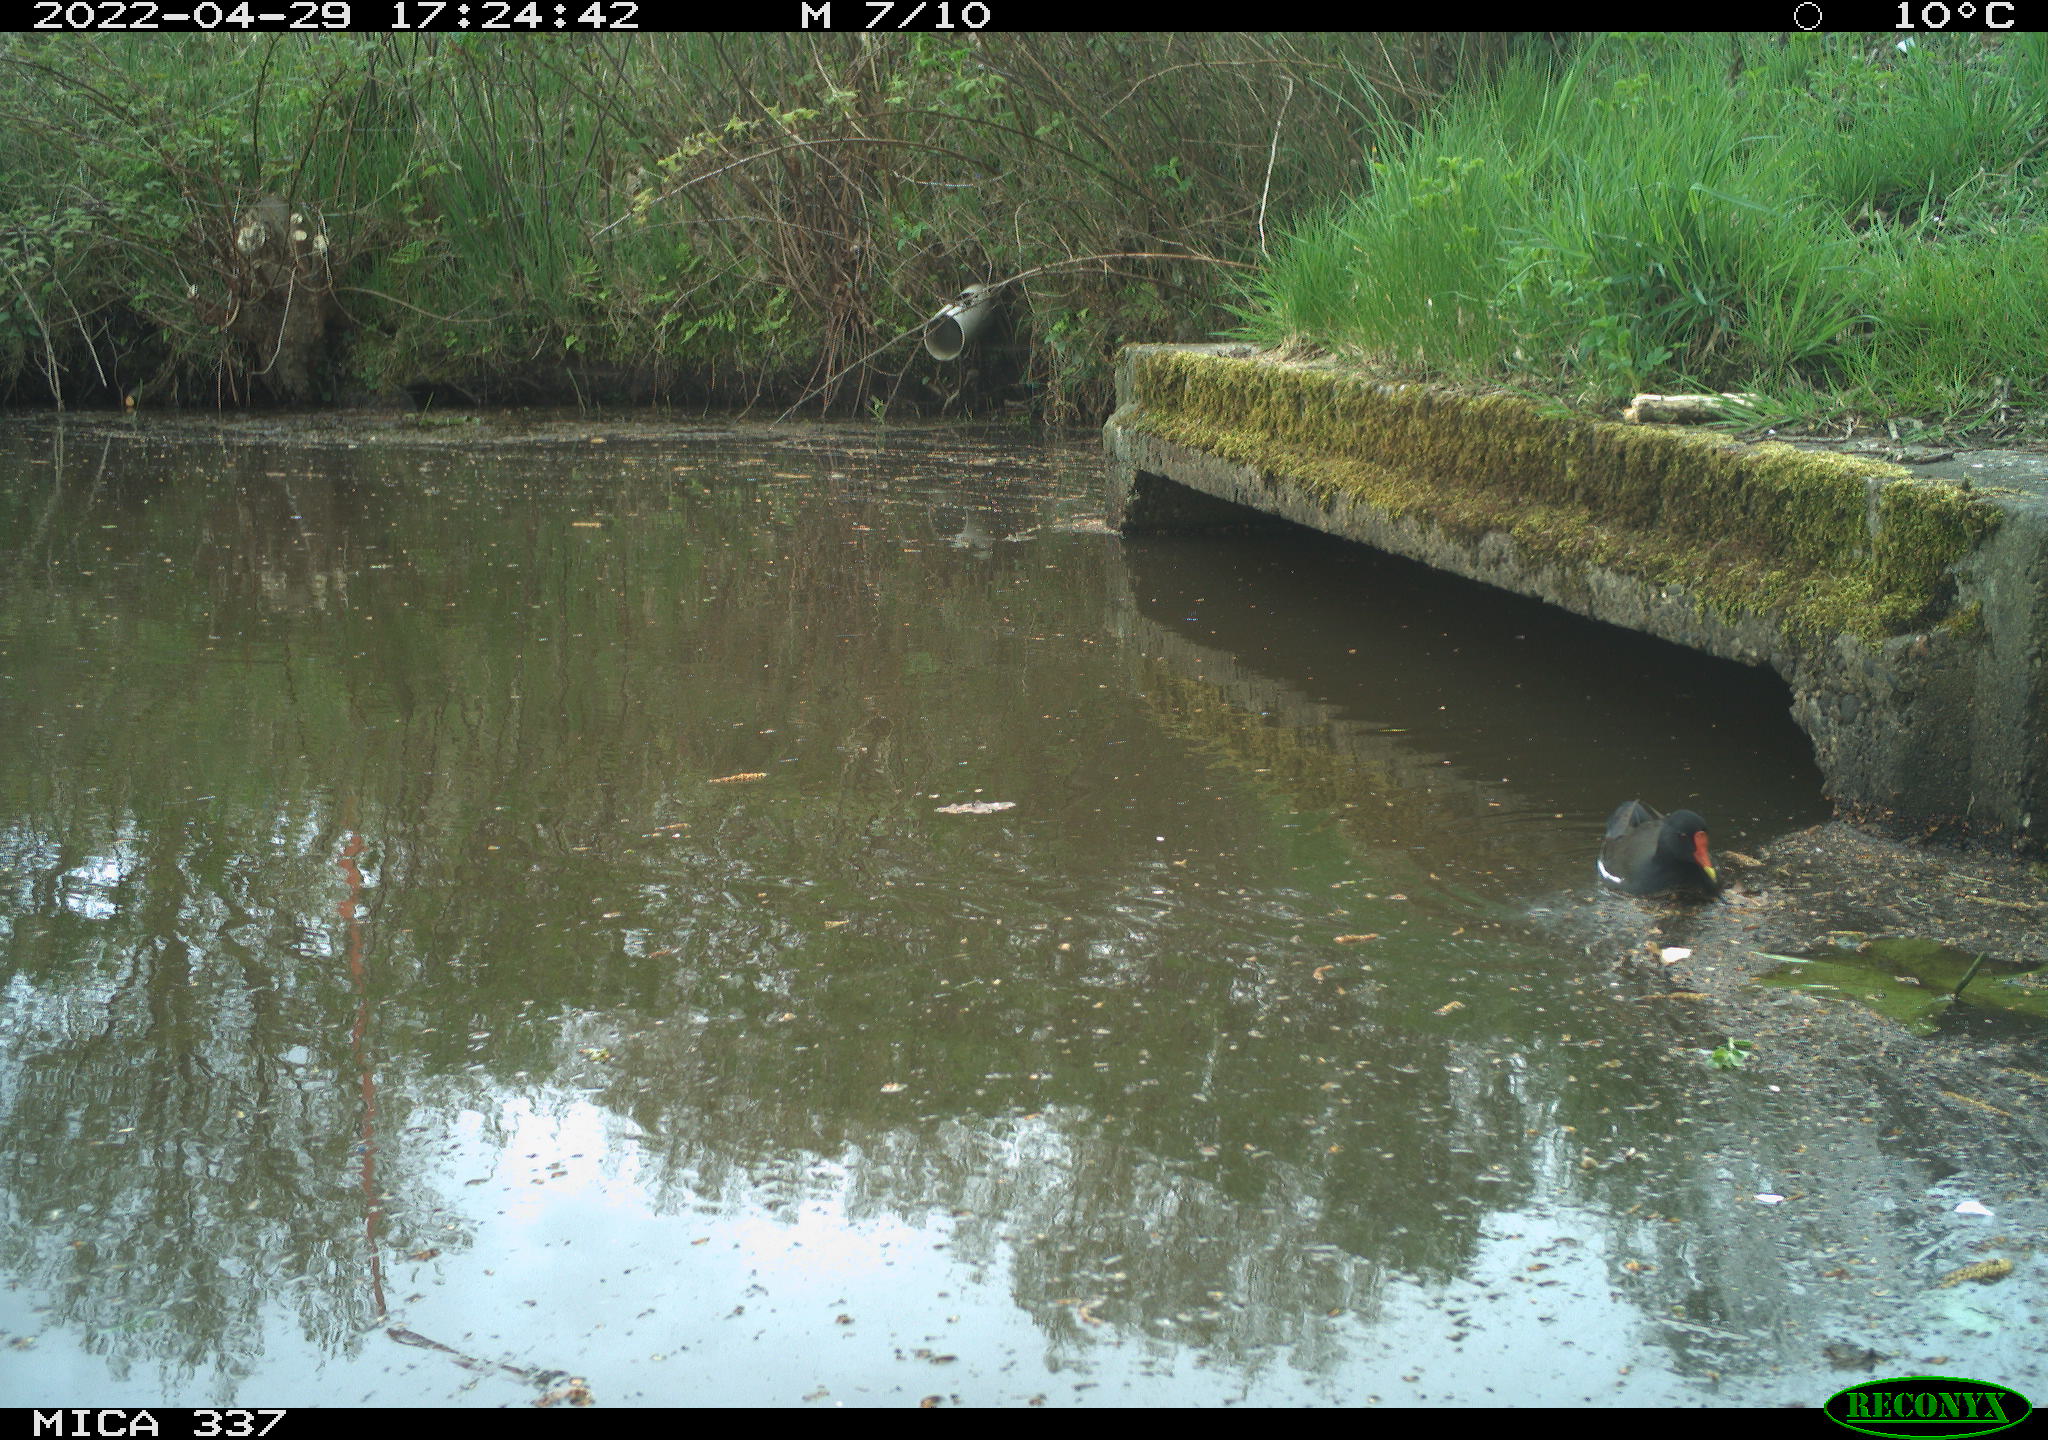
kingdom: Animalia
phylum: Chordata
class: Aves
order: Gruiformes
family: Rallidae
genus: Gallinula
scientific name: Gallinula chloropus
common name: Common moorhen
